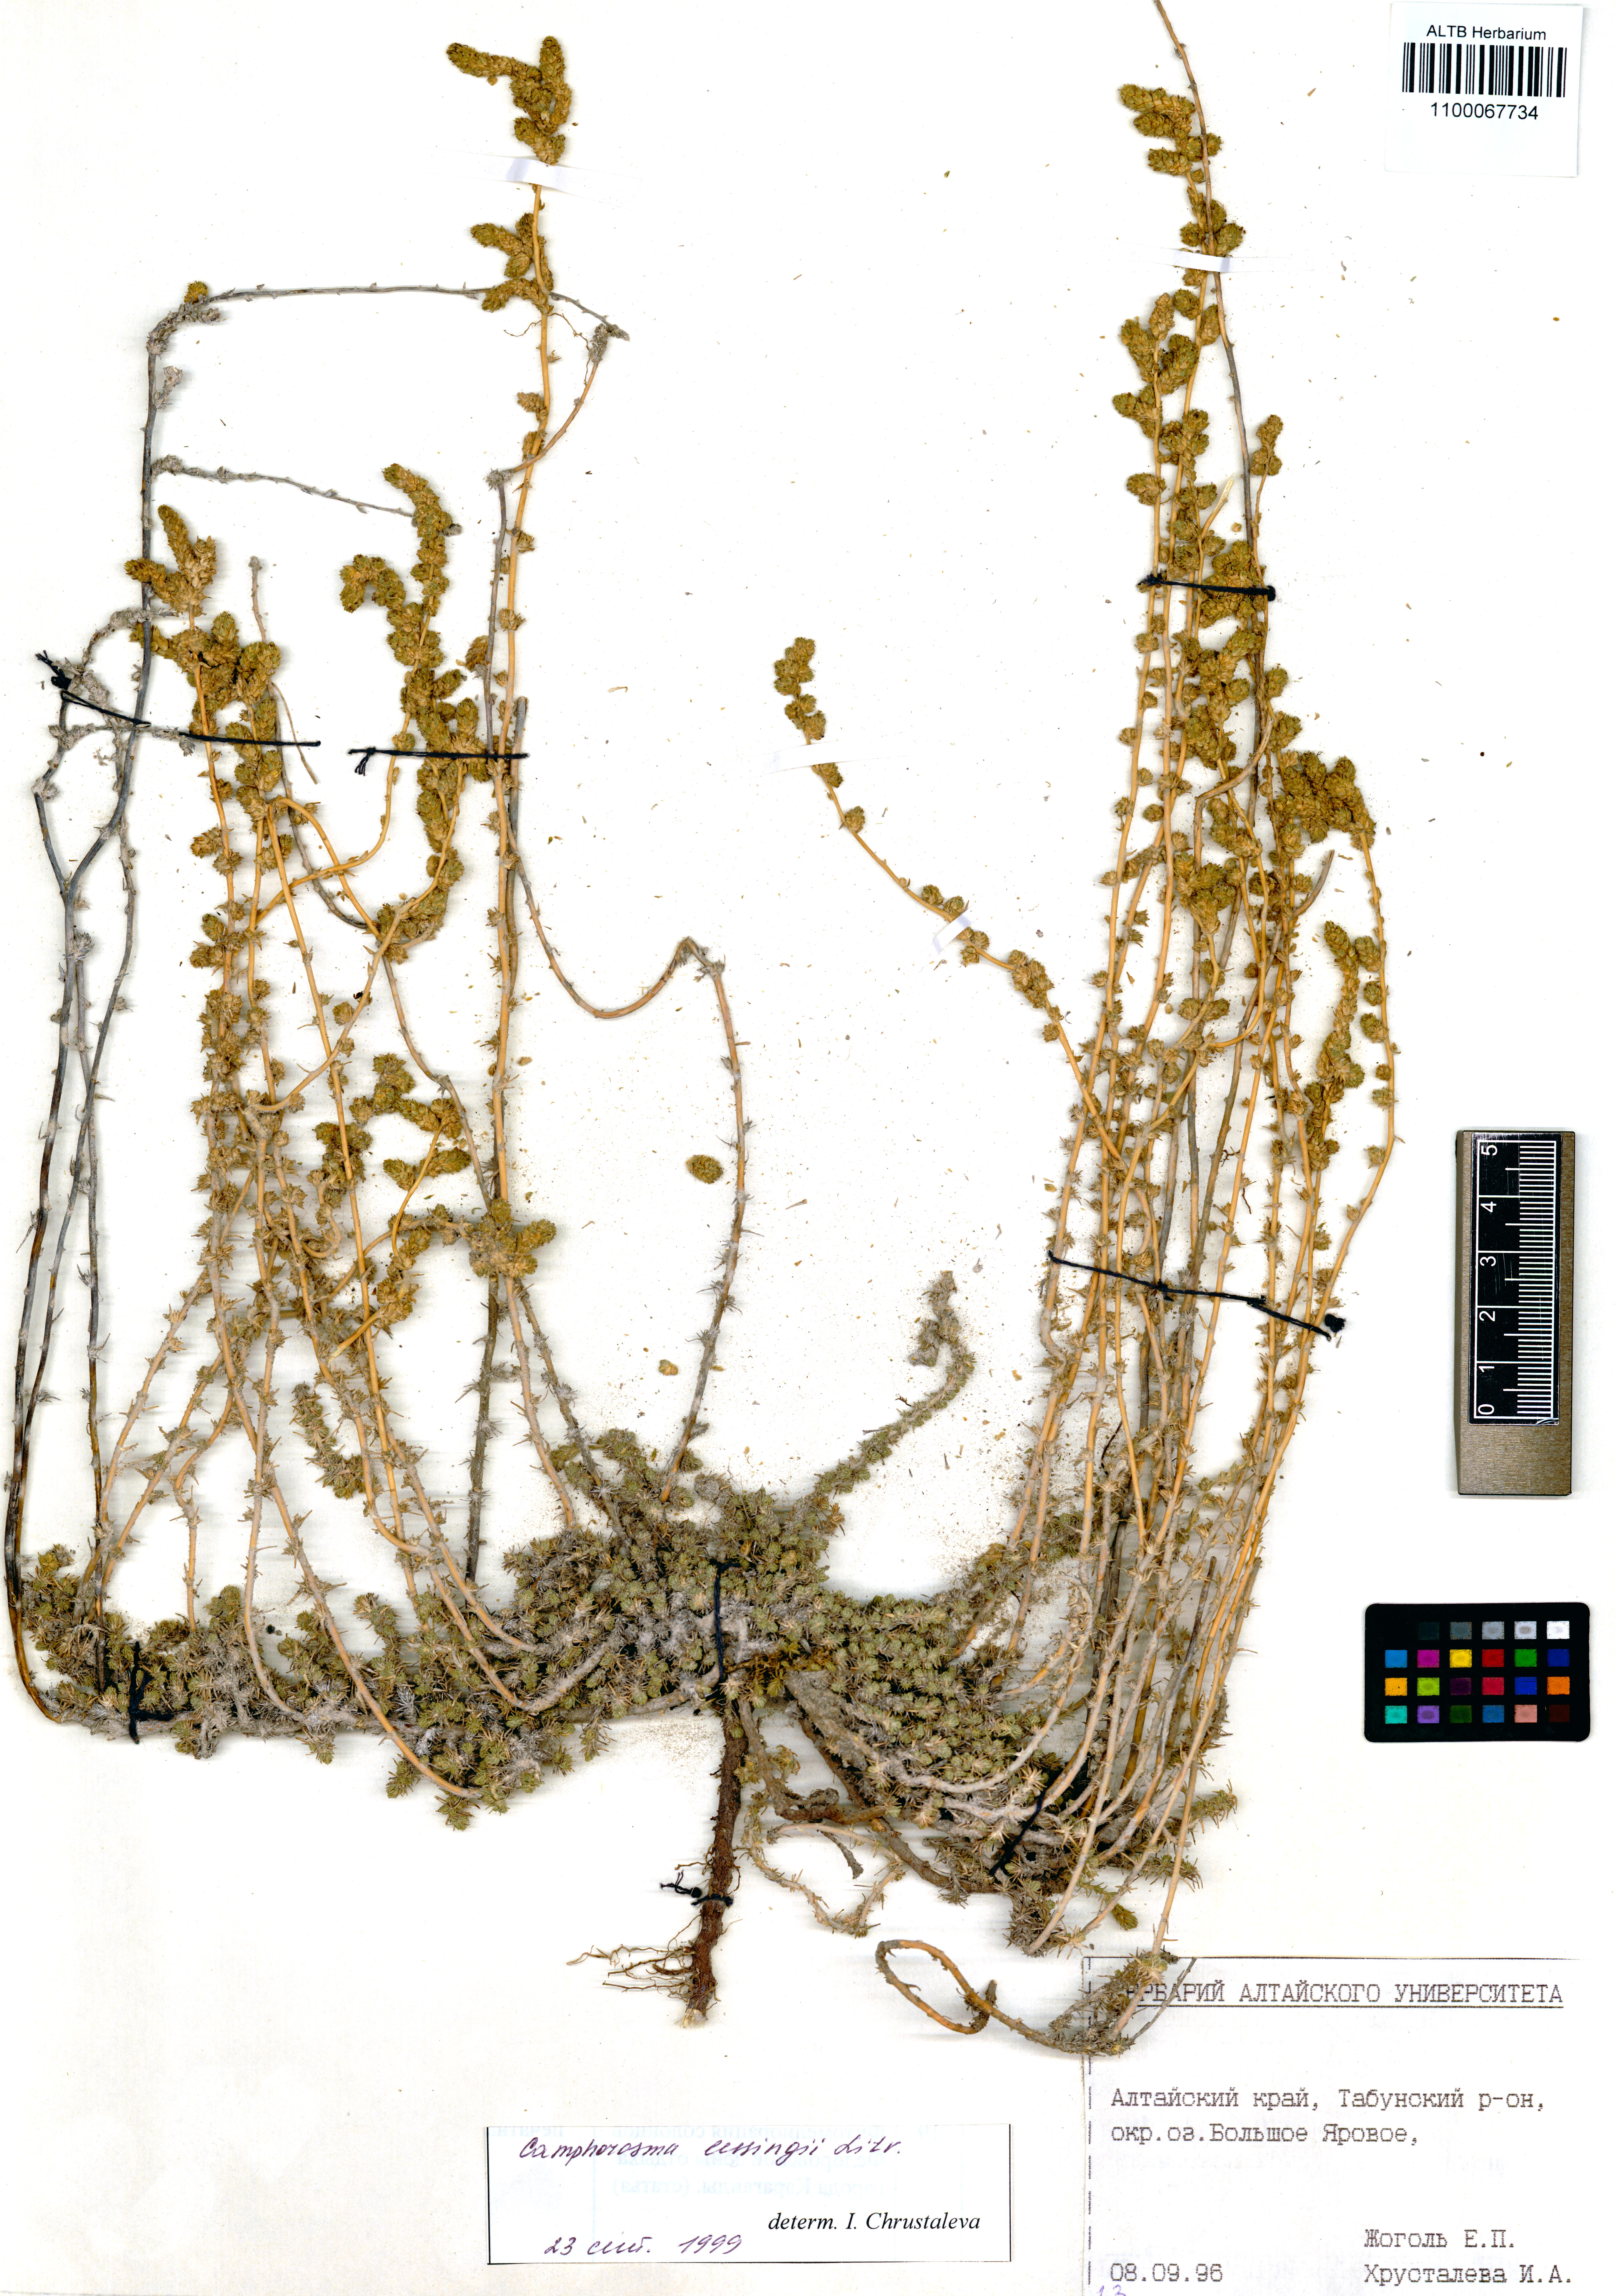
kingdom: Plantae
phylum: Tracheophyta
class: Magnoliopsida
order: Caryophyllales
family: Amaranthaceae
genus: Camphorosma
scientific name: Camphorosma monspeliaca
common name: Camphorfume
